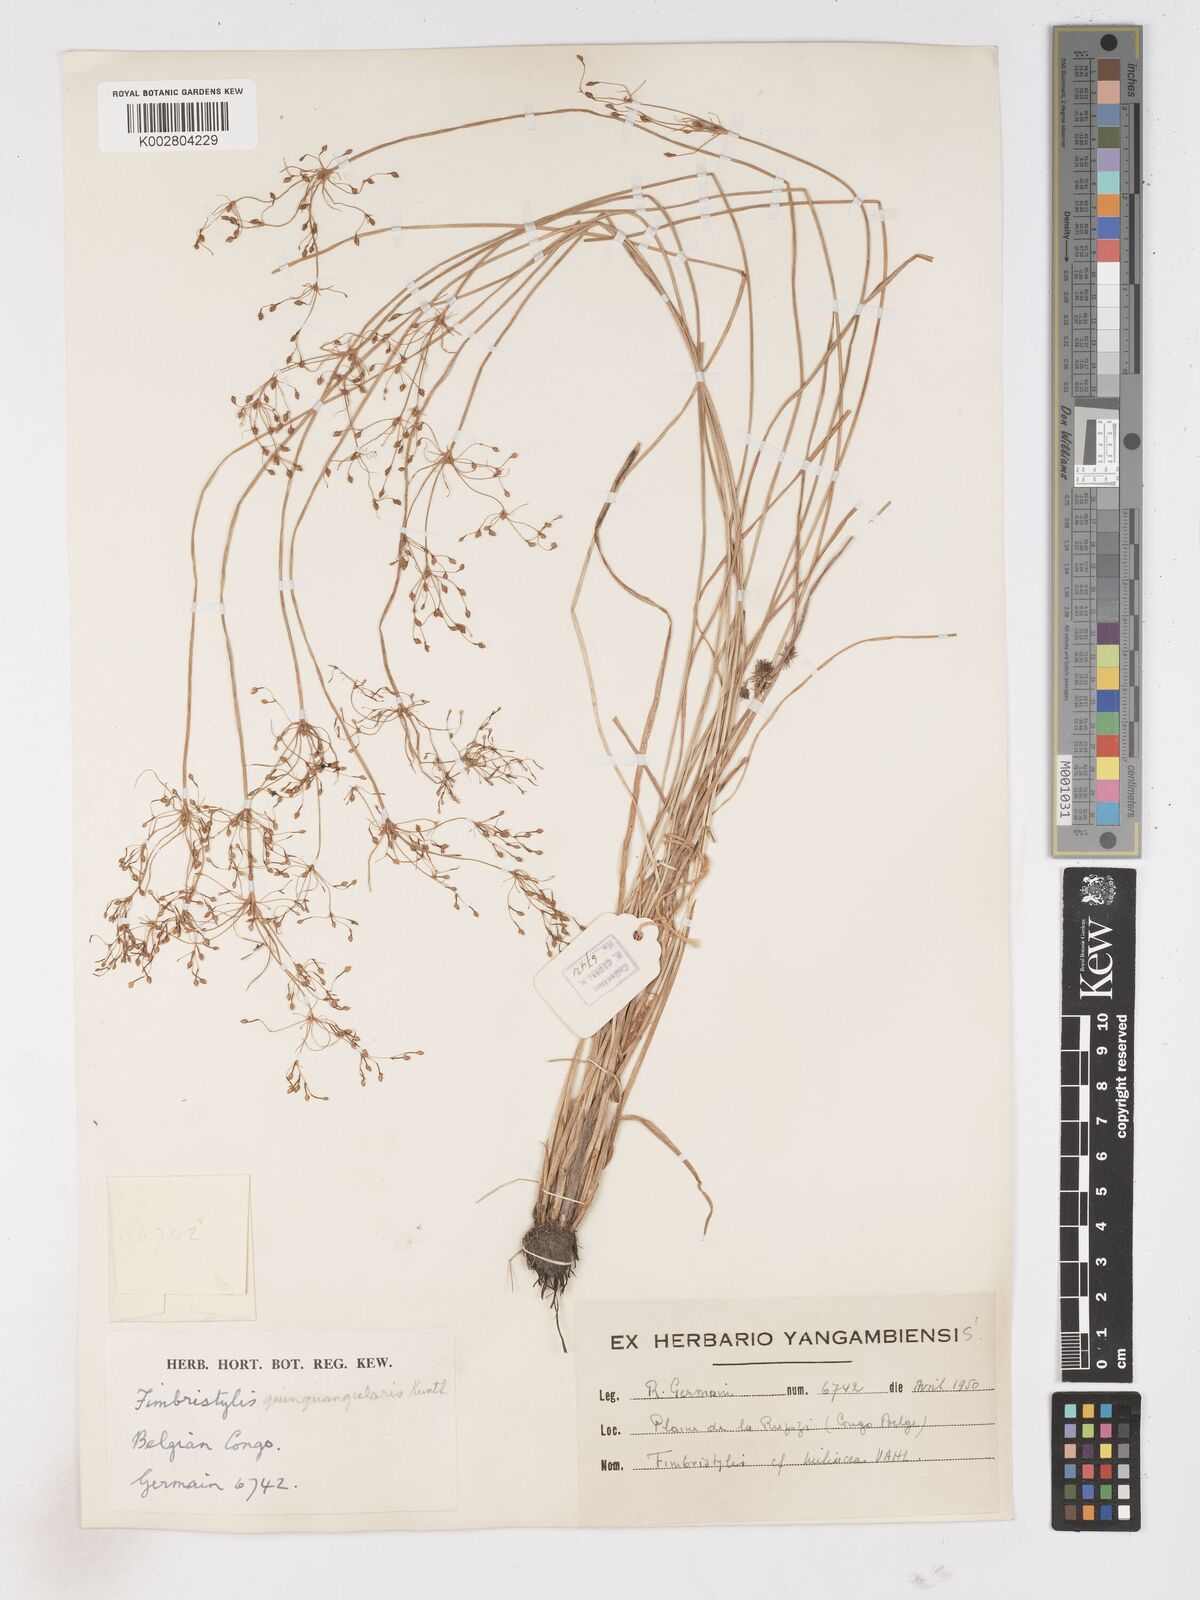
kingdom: Plantae
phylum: Tracheophyta
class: Liliopsida
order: Poales
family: Cyperaceae
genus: Fimbristylis
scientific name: Fimbristylis quinquangularis
